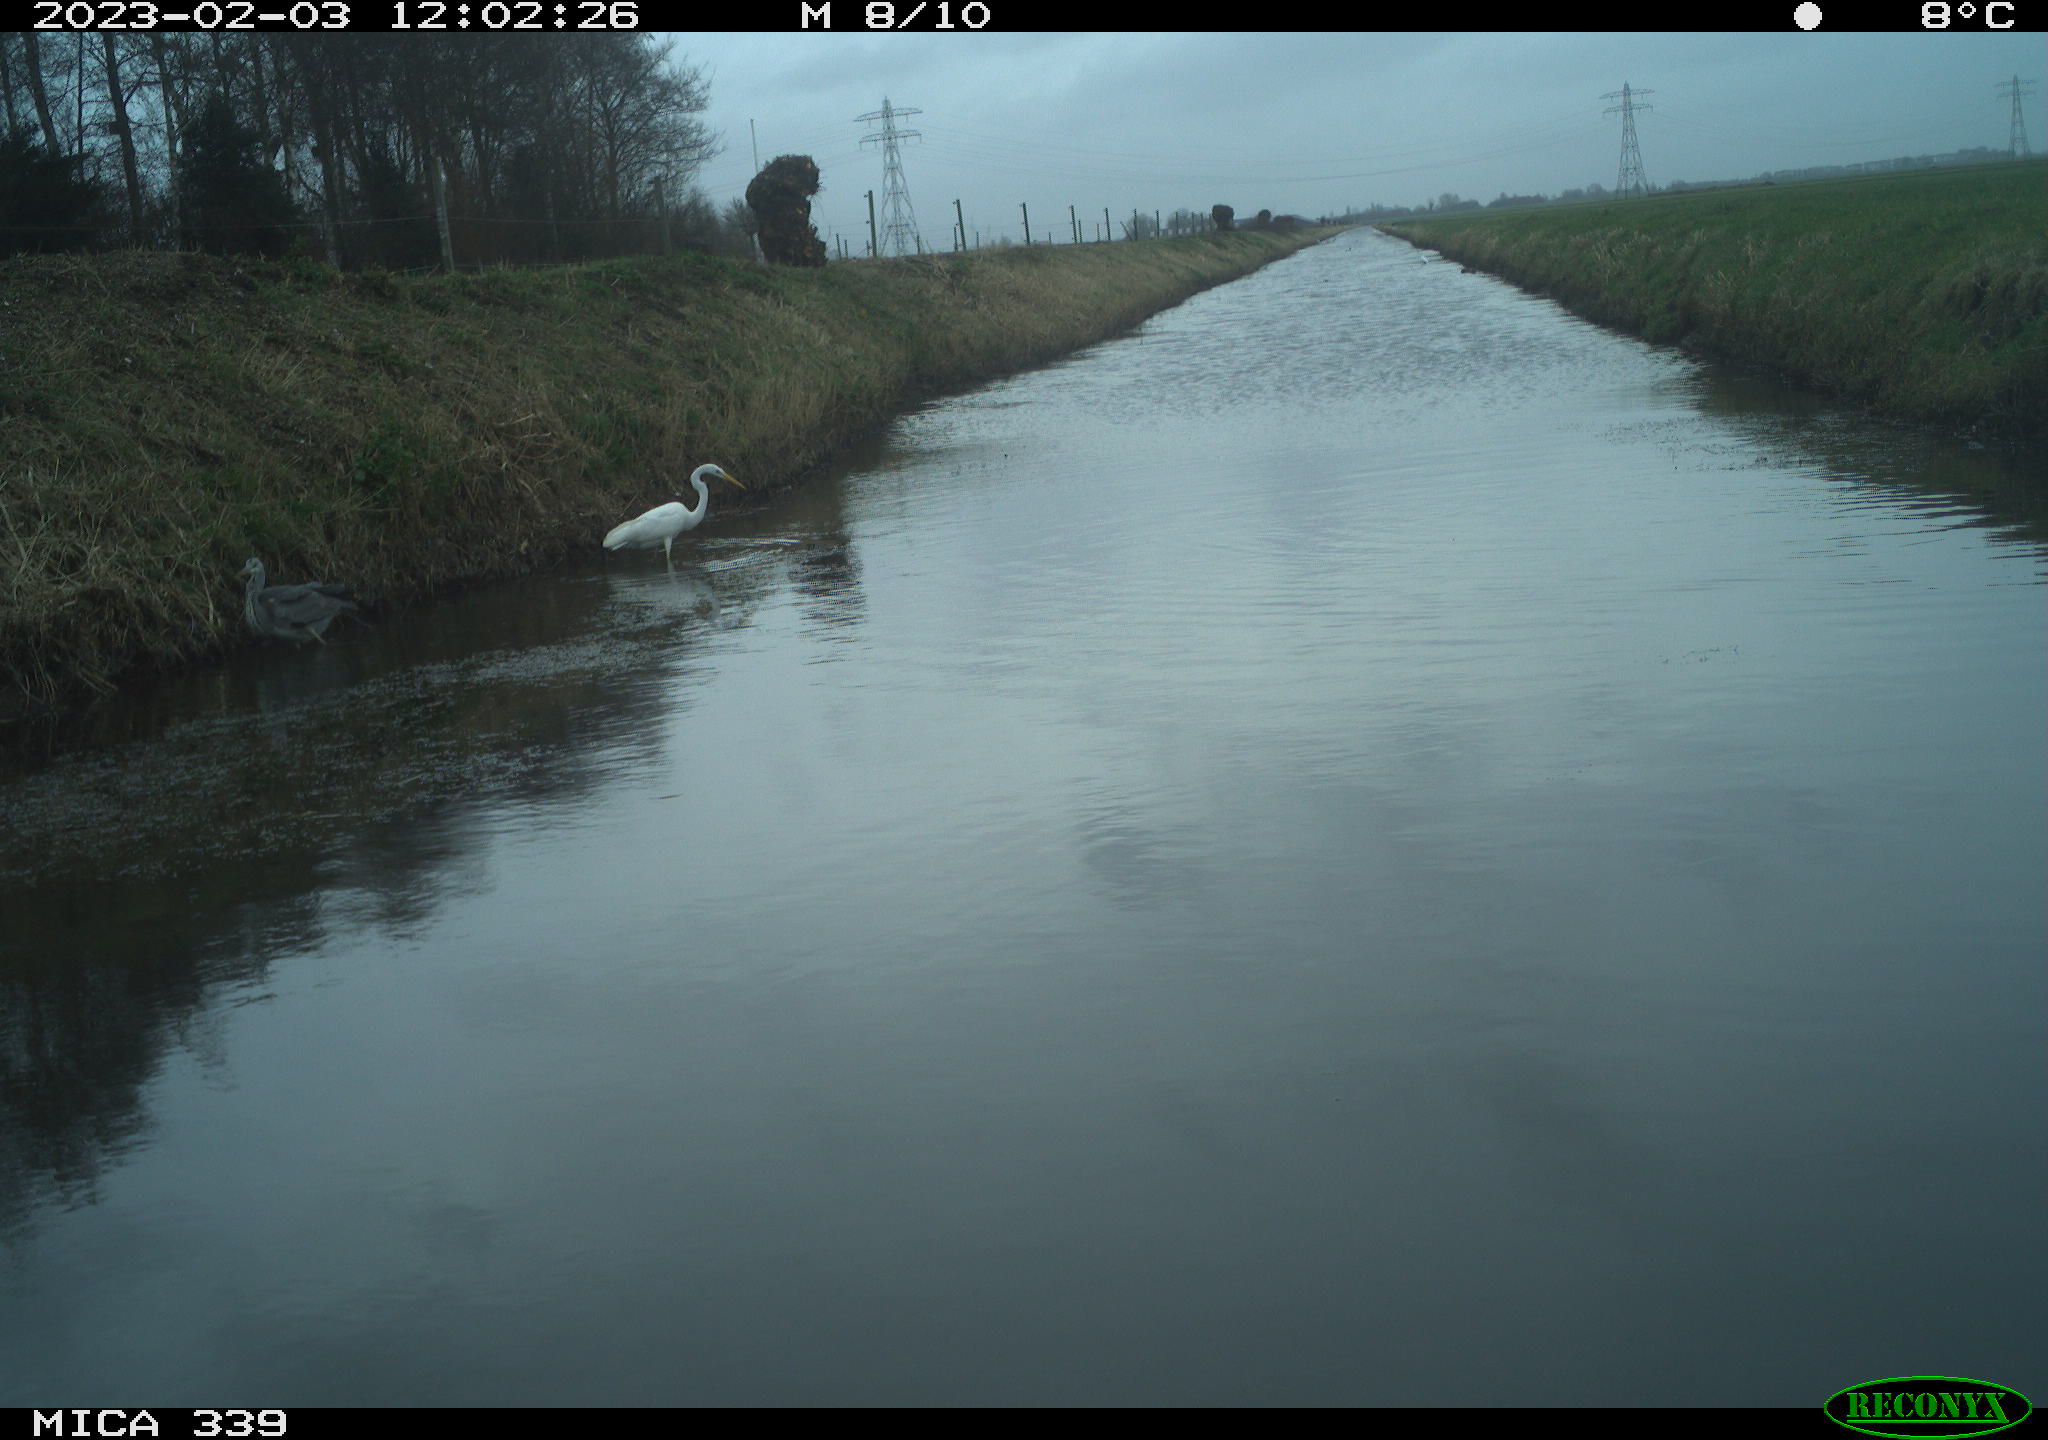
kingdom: Animalia
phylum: Chordata
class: Aves
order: Pelecaniformes
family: Ardeidae
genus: Ardea
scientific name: Ardea alba
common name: Great egret
